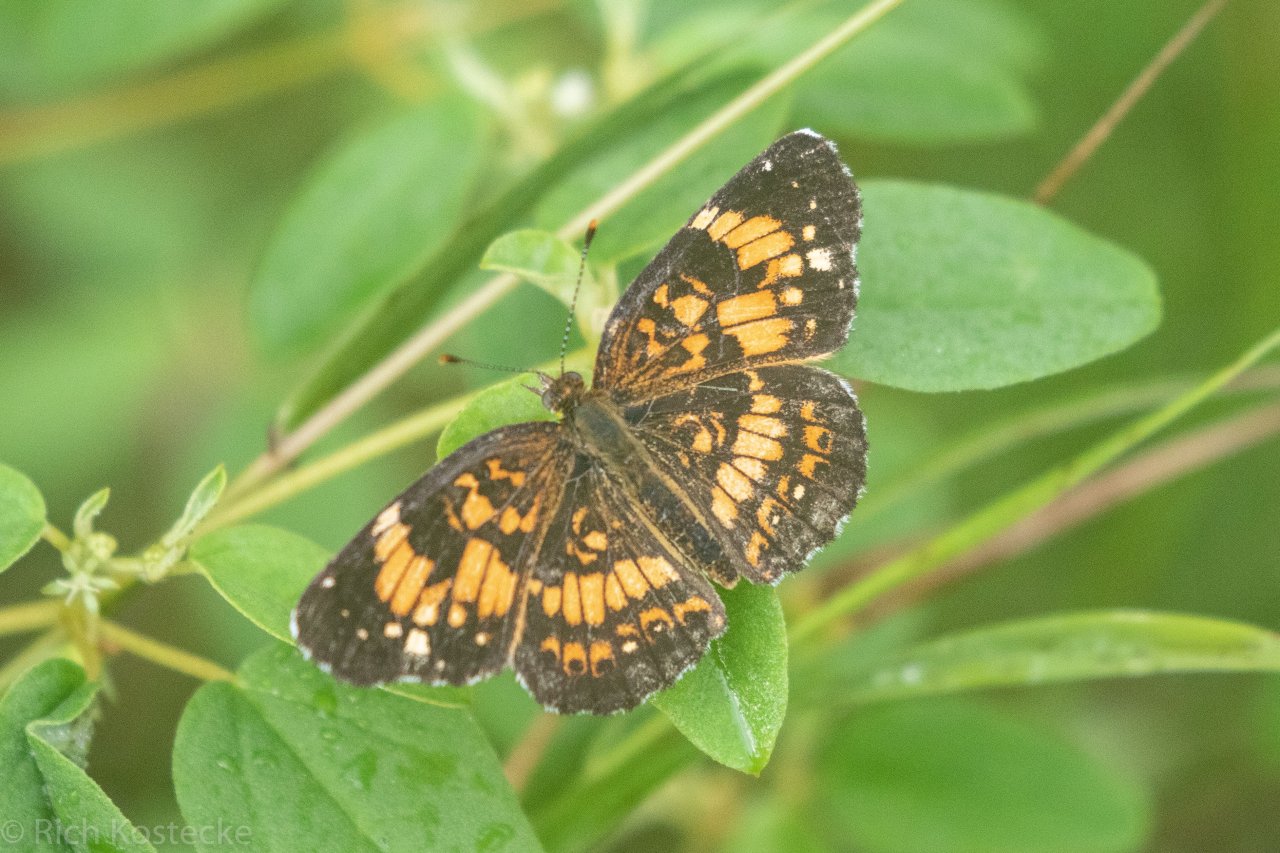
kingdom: Animalia
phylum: Arthropoda
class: Insecta
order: Lepidoptera
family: Nymphalidae
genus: Chlosyne
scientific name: Chlosyne nycteis
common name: Silvery Checkerspot
